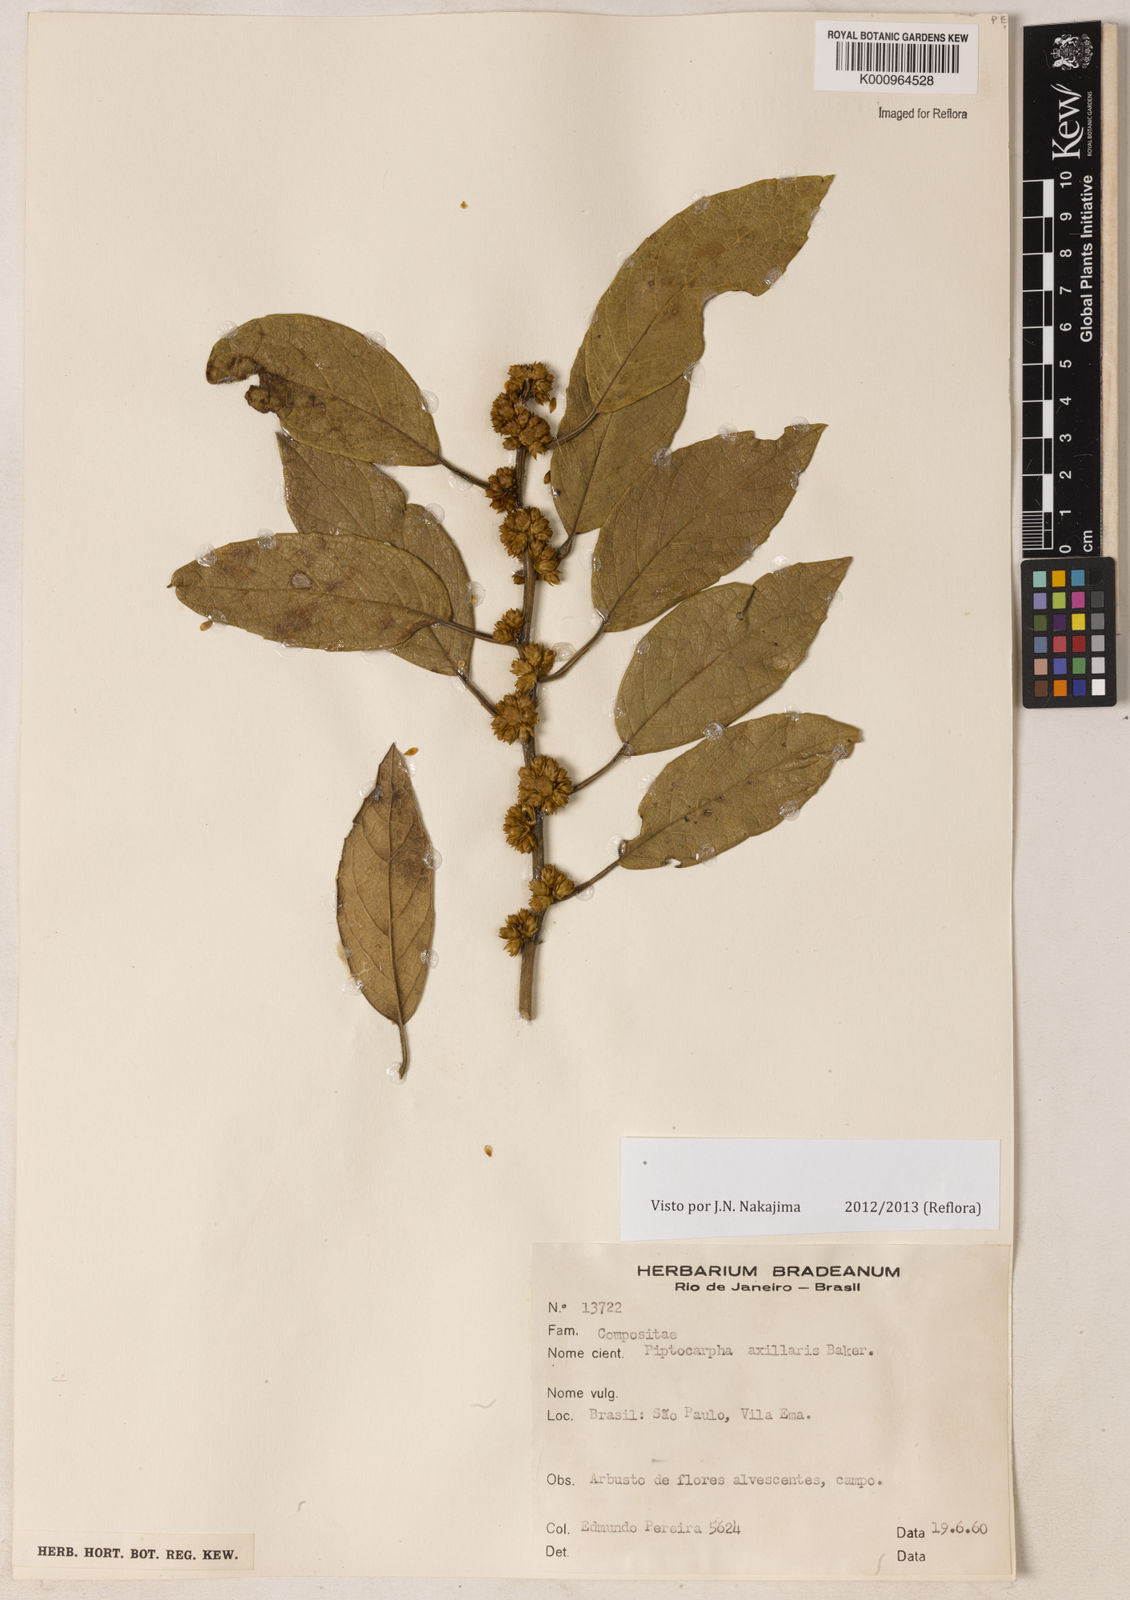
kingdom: Plantae
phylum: Tracheophyta
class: Magnoliopsida
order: Asterales
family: Asteraceae
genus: Piptocarpha
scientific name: Piptocarpha axillaris
